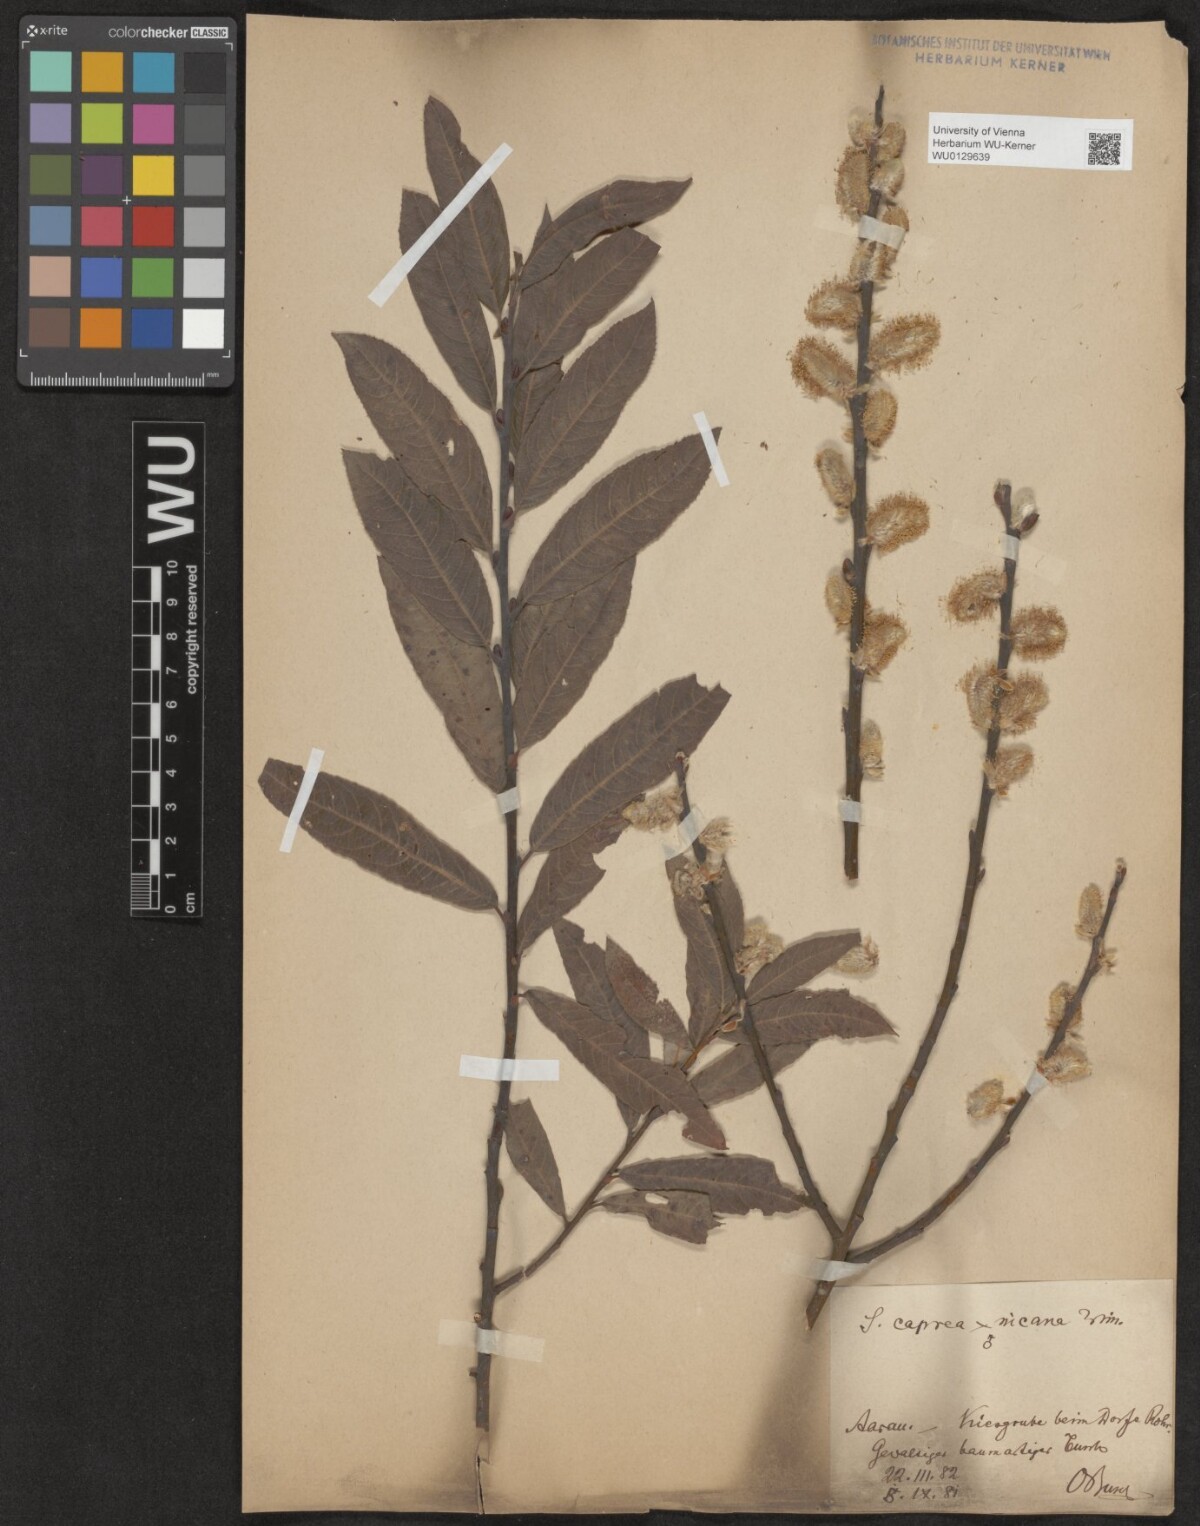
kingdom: Plantae
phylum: Tracheophyta
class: Magnoliopsida
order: Malpighiales
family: Salicaceae
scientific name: Salicaceae
